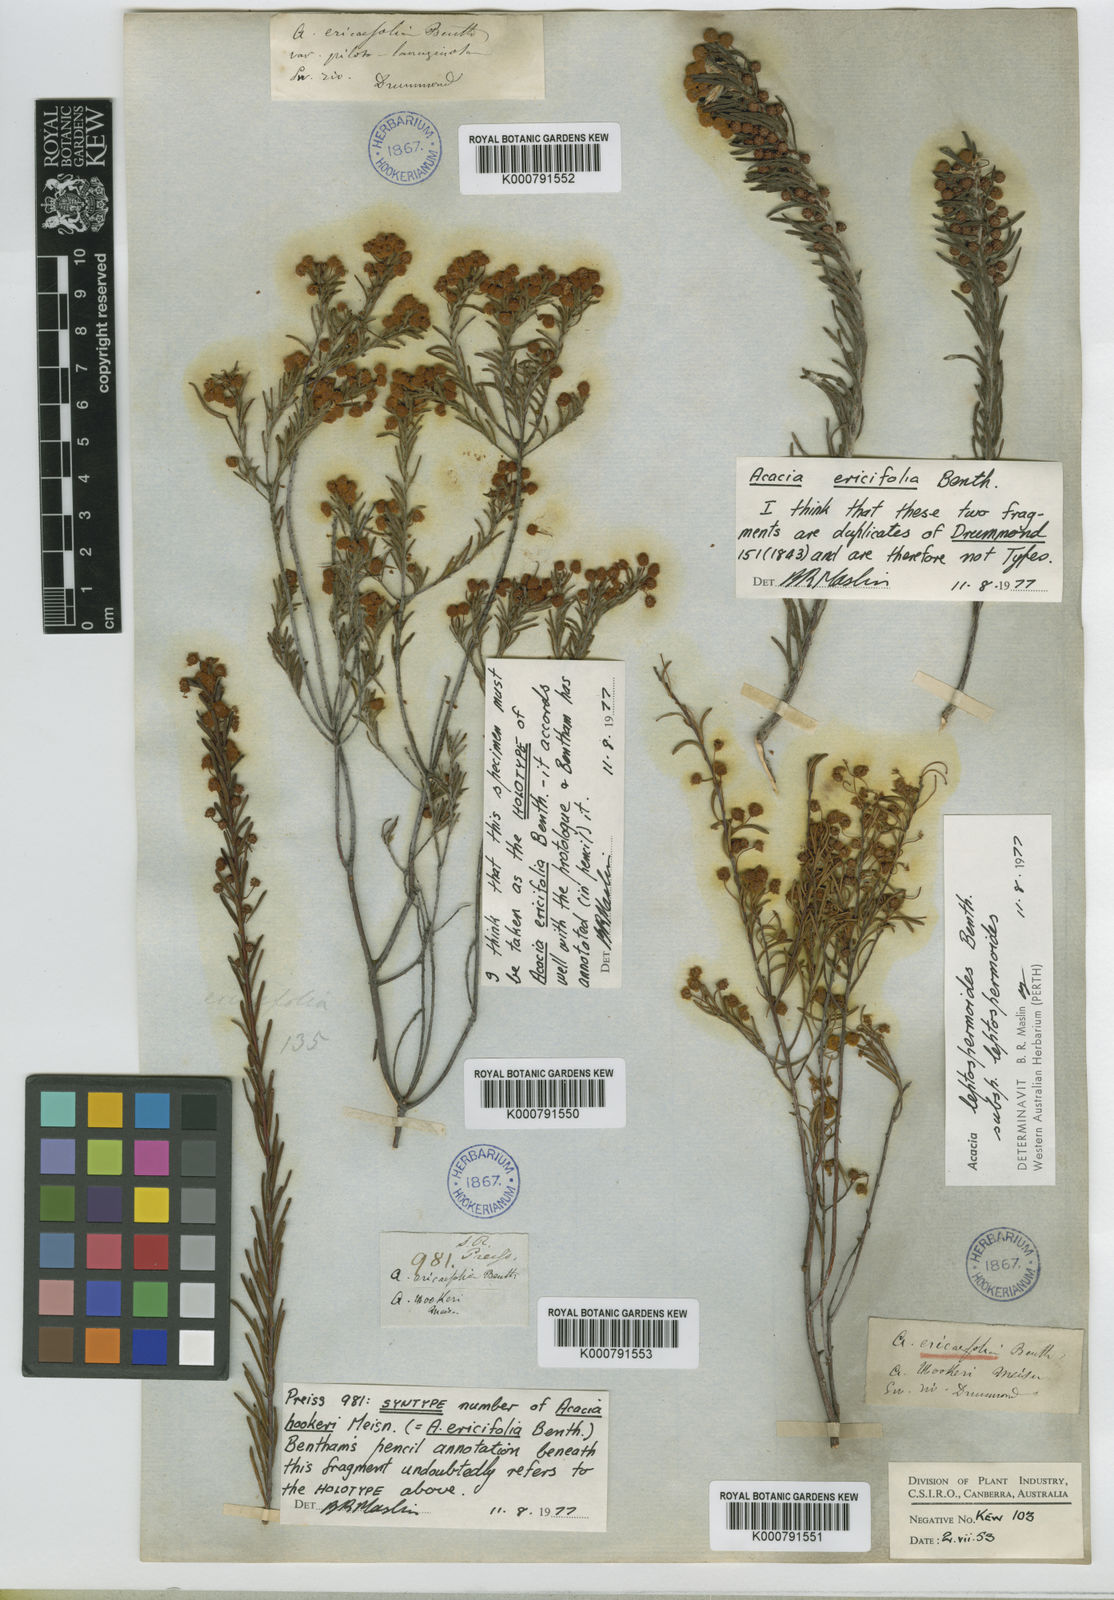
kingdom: Plantae
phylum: Tracheophyta
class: Magnoliopsida
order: Fabales
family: Fabaceae
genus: Acacia
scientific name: Acacia ericifolia
